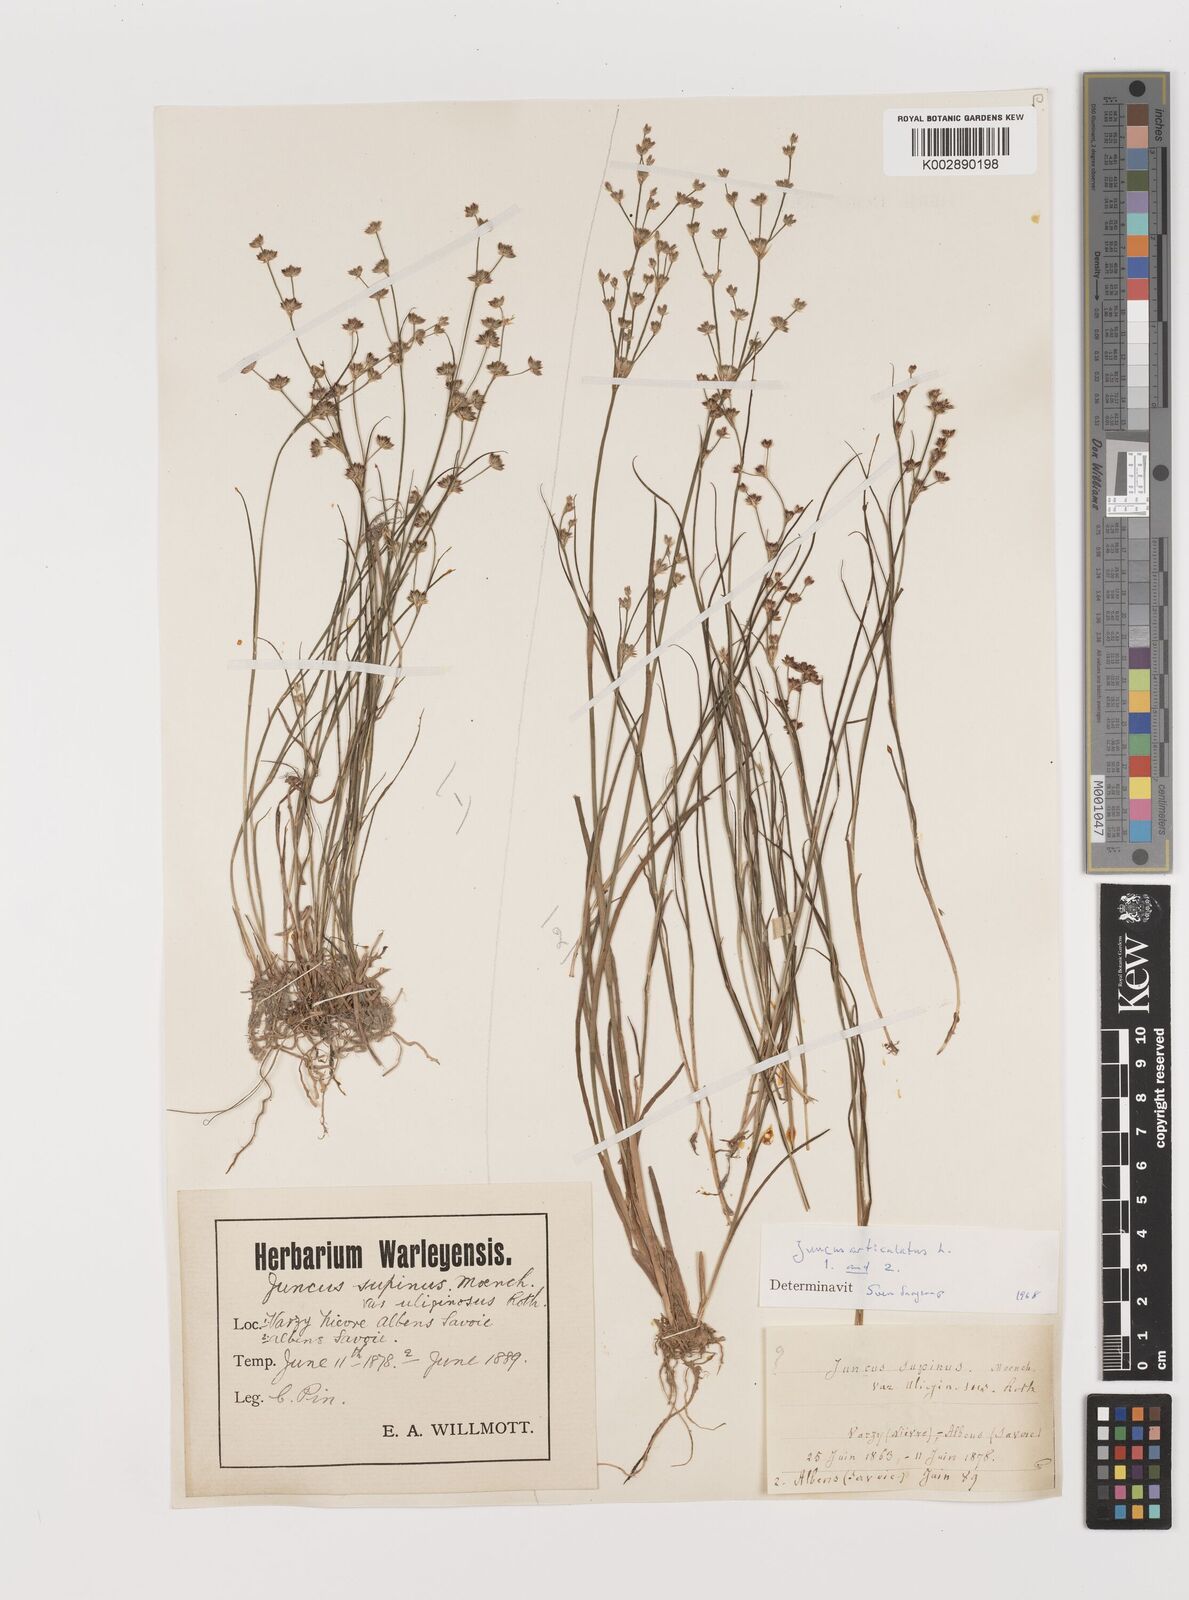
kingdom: Plantae
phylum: Tracheophyta
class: Liliopsida
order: Poales
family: Juncaceae
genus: Juncus
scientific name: Juncus articulatus
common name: Jointed rush
